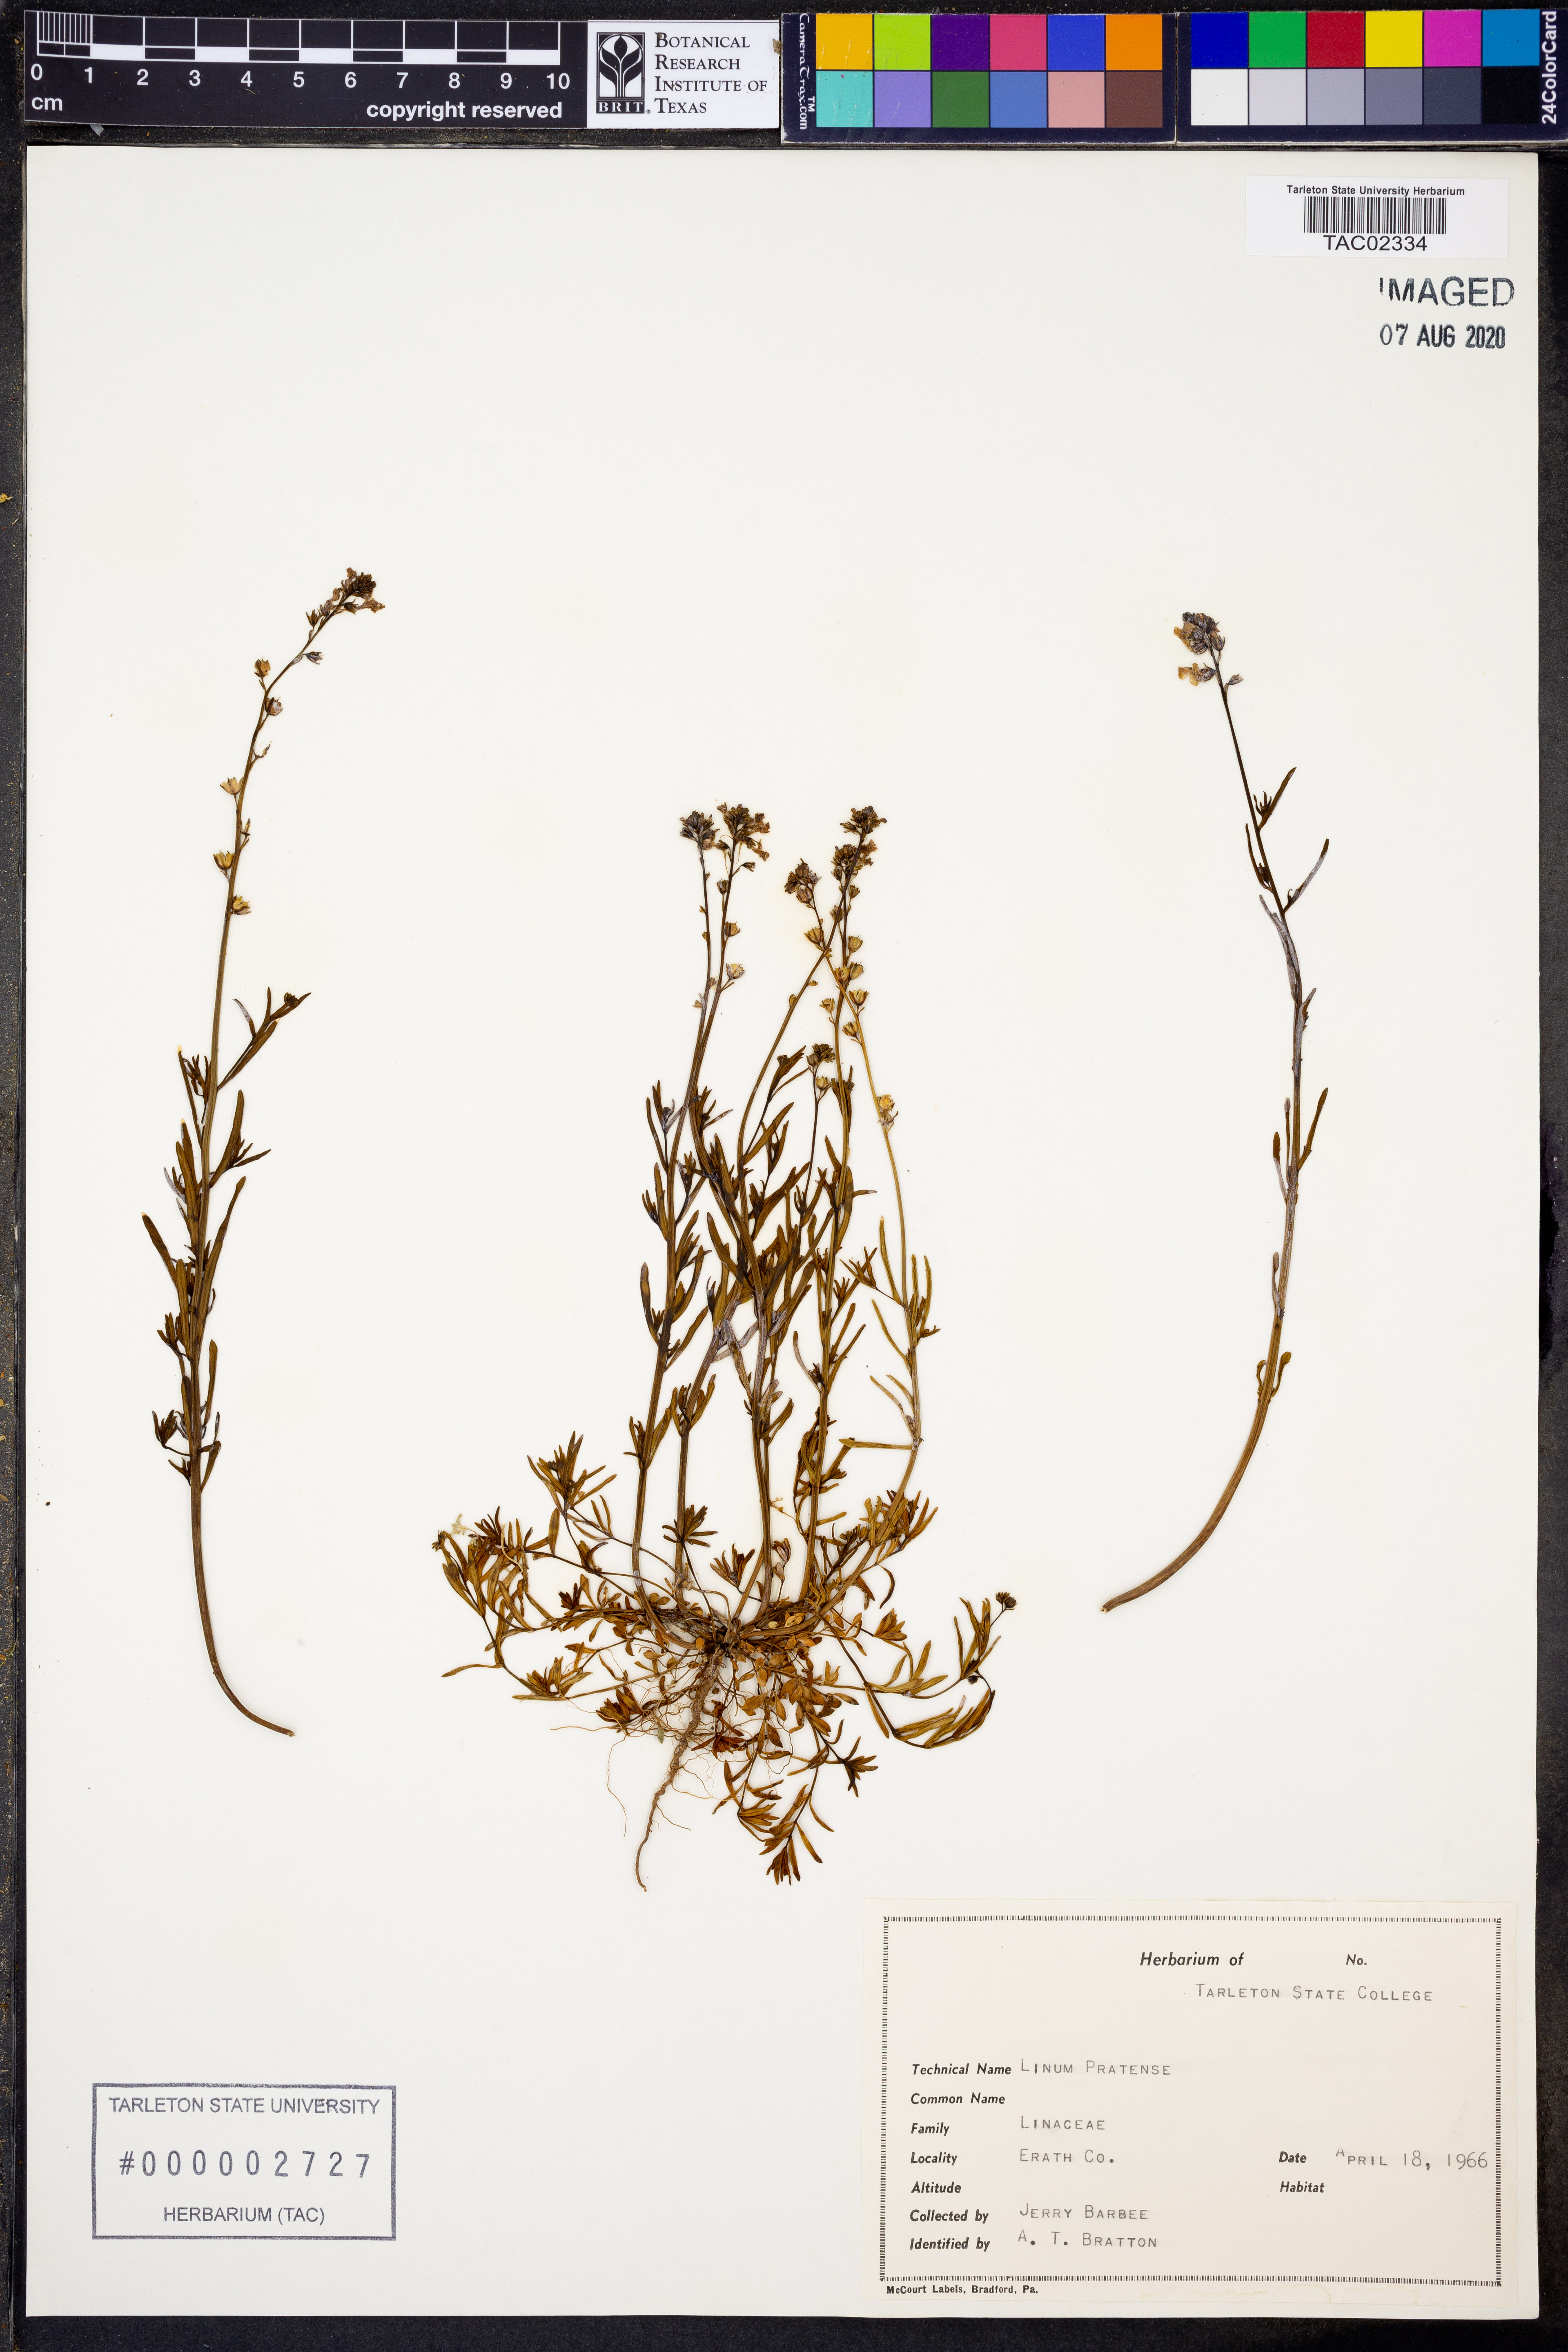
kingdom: Plantae
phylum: Tracheophyta
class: Magnoliopsida
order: Malpighiales
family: Linaceae
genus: Linum
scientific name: Linum pratense
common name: Norton's flax
